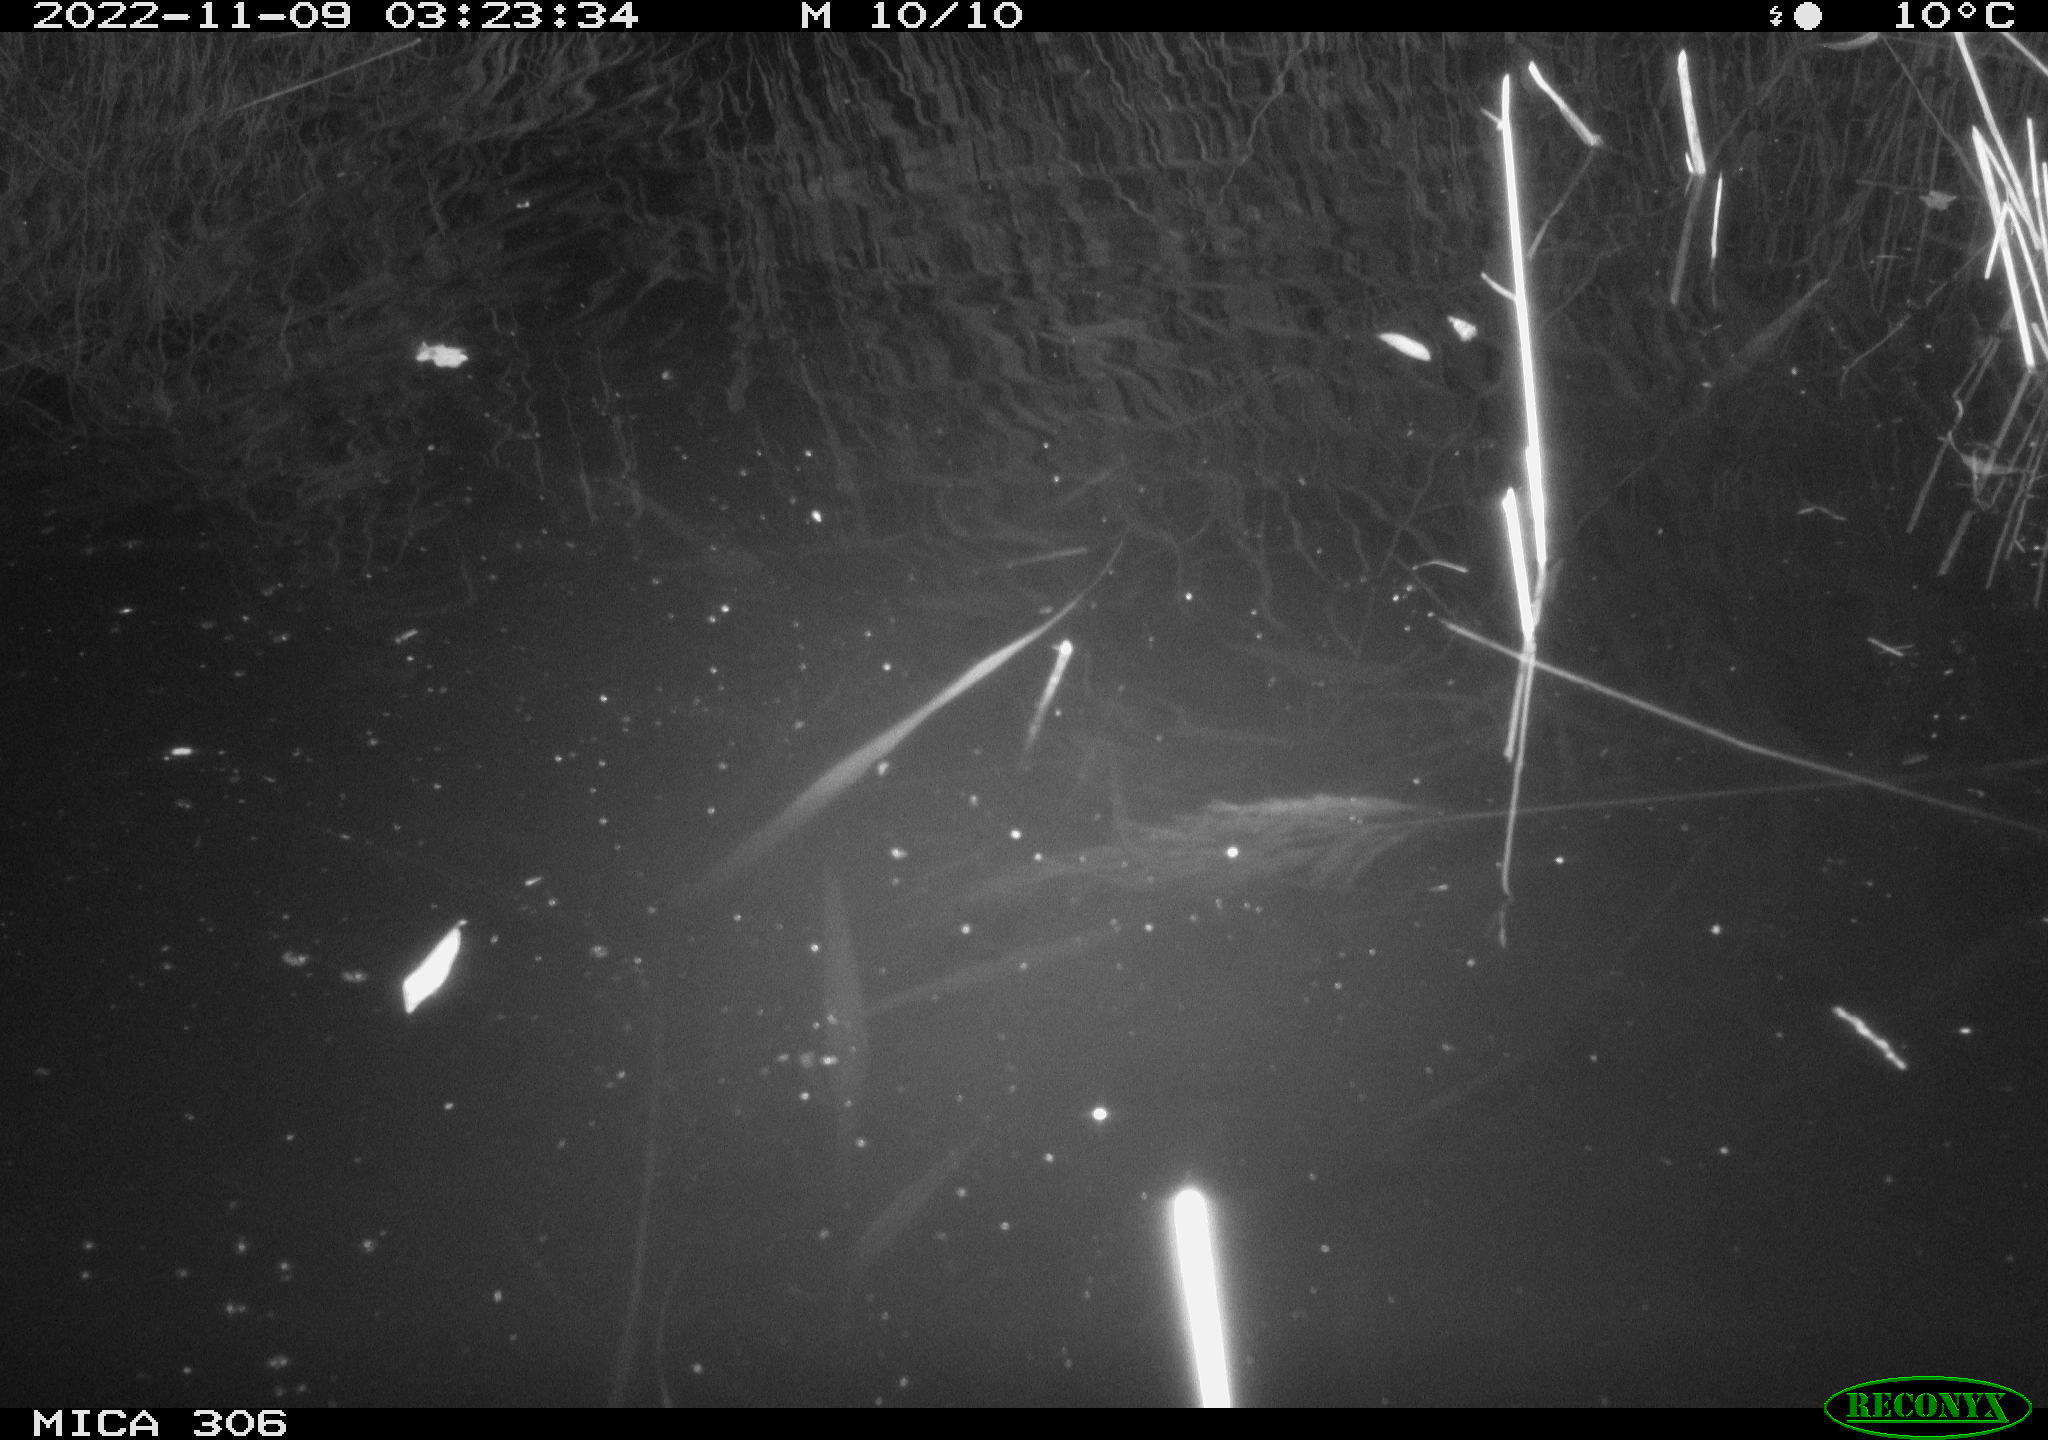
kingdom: Animalia
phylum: Chordata
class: Mammalia
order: Rodentia
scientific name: Rodentia
